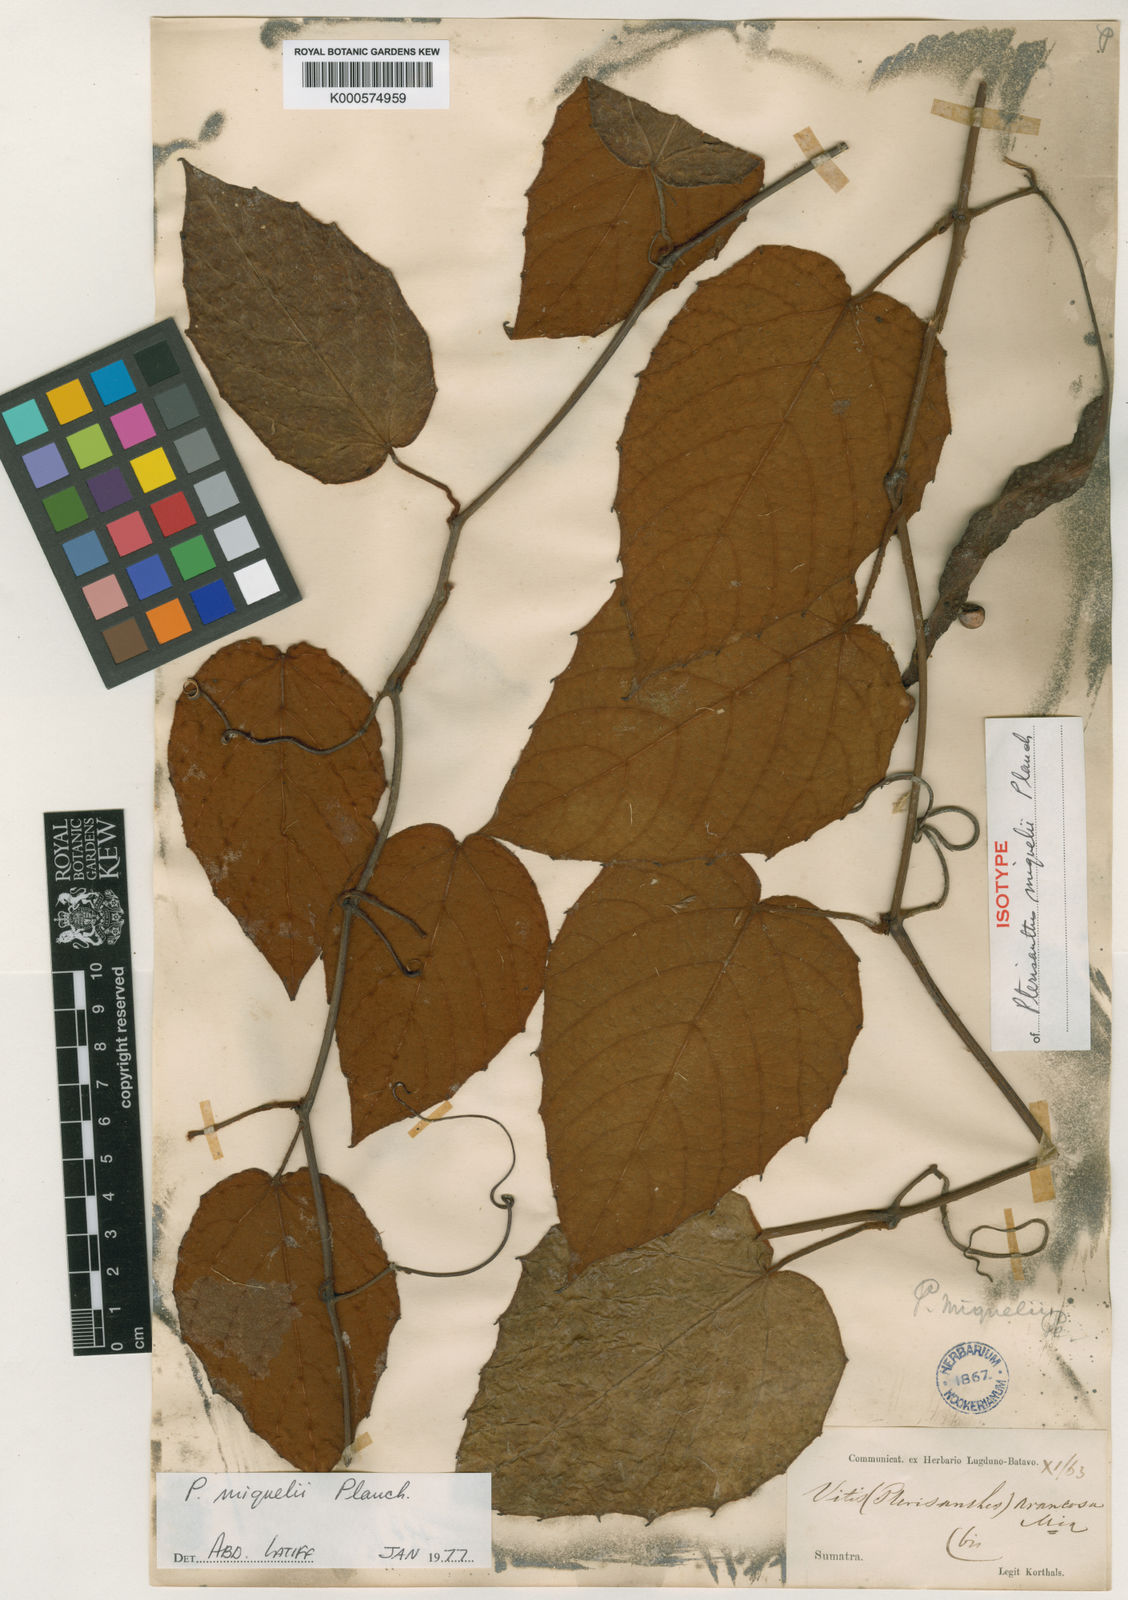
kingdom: Plantae
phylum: Tracheophyta
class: Magnoliopsida
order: Vitales
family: Vitaceae
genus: Pterisanthes
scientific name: Pterisanthes miquelii
